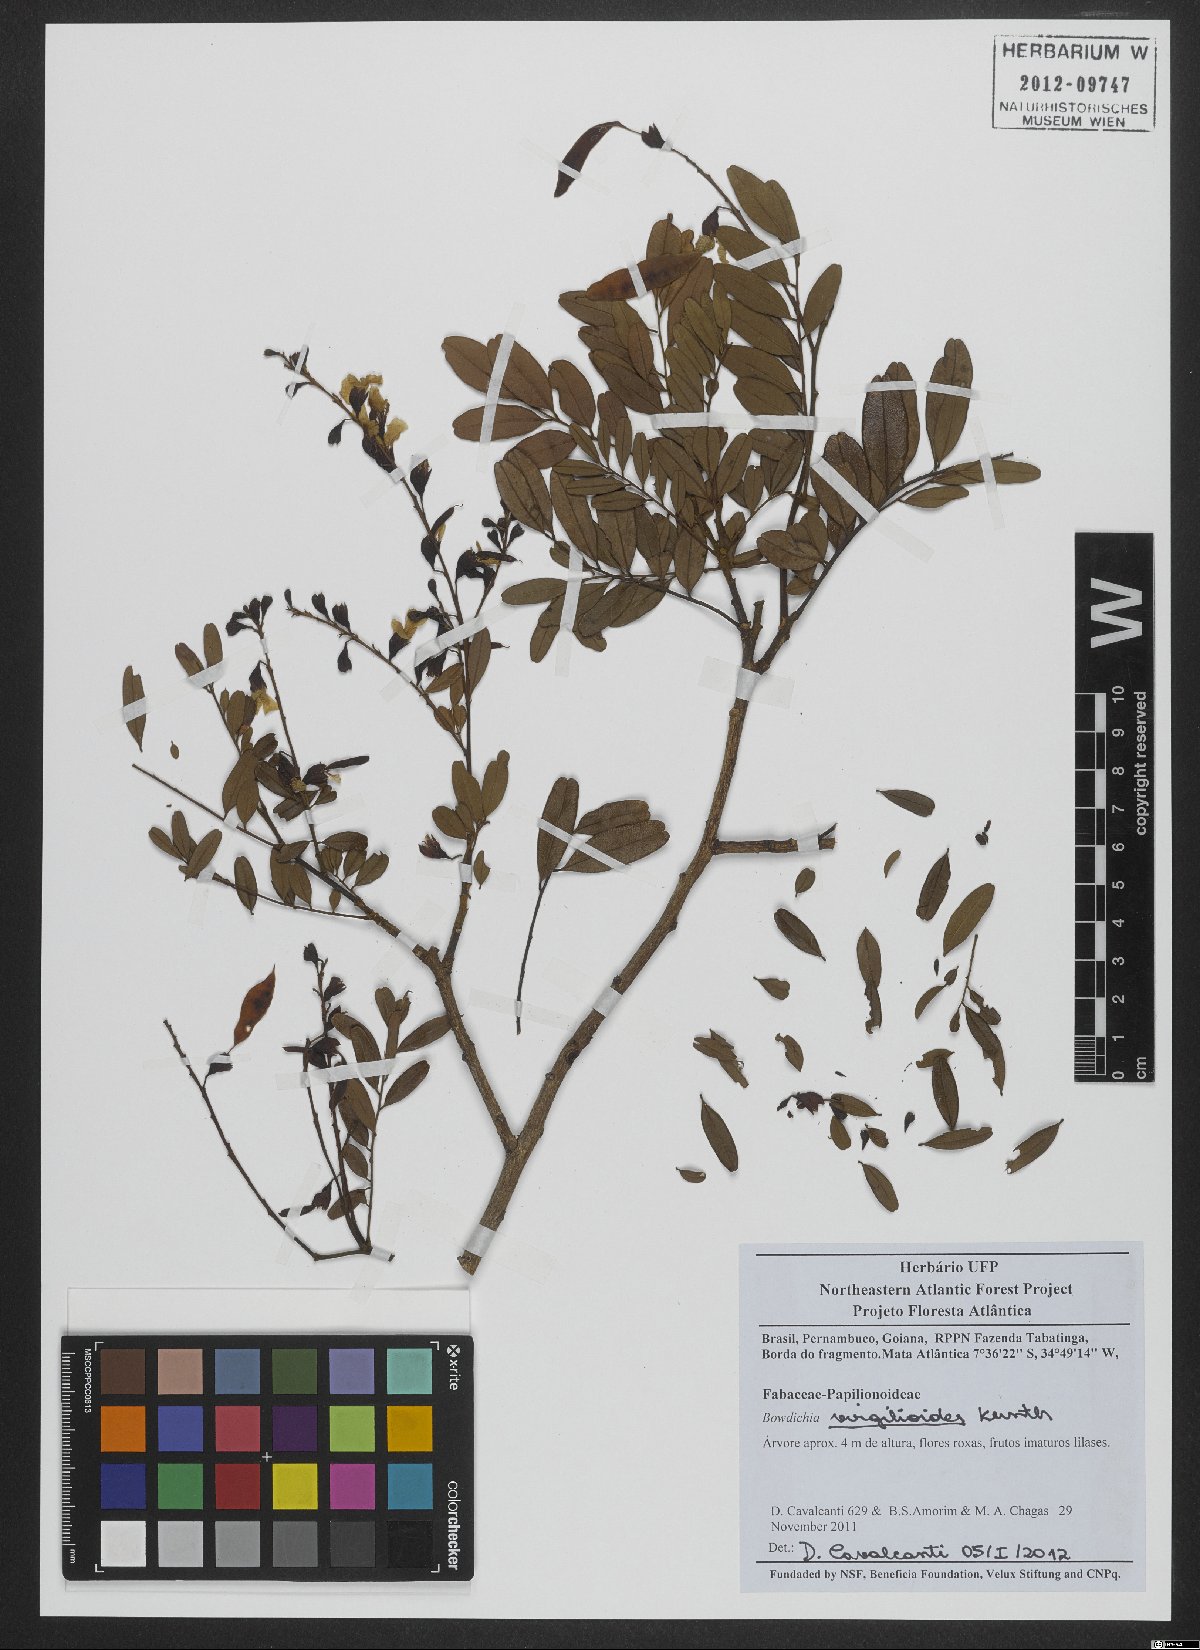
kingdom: Plantae
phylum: Tracheophyta
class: Magnoliopsida
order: Fabales
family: Fabaceae
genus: Bowdichia
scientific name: Bowdichia virgilioides
